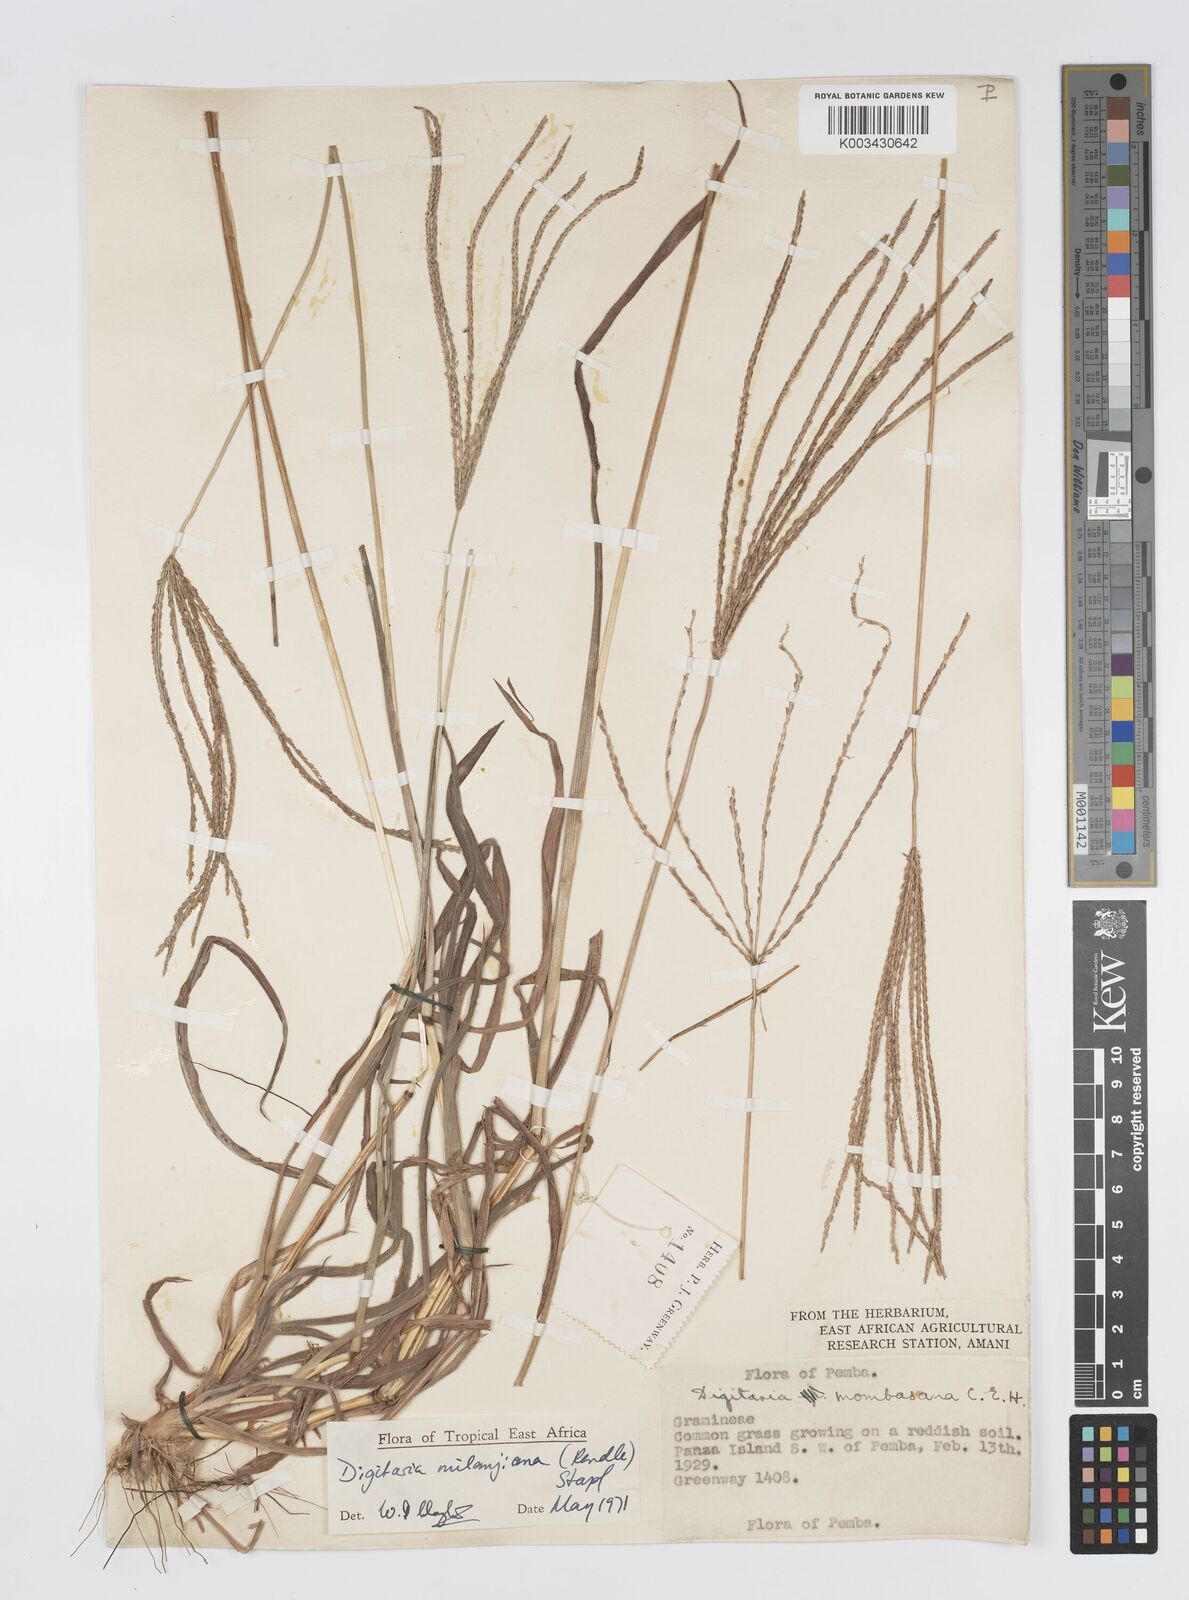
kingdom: Plantae
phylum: Tracheophyta
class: Liliopsida
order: Poales
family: Poaceae
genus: Digitaria
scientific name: Digitaria milanjiana
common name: Madagascar crabgrass
